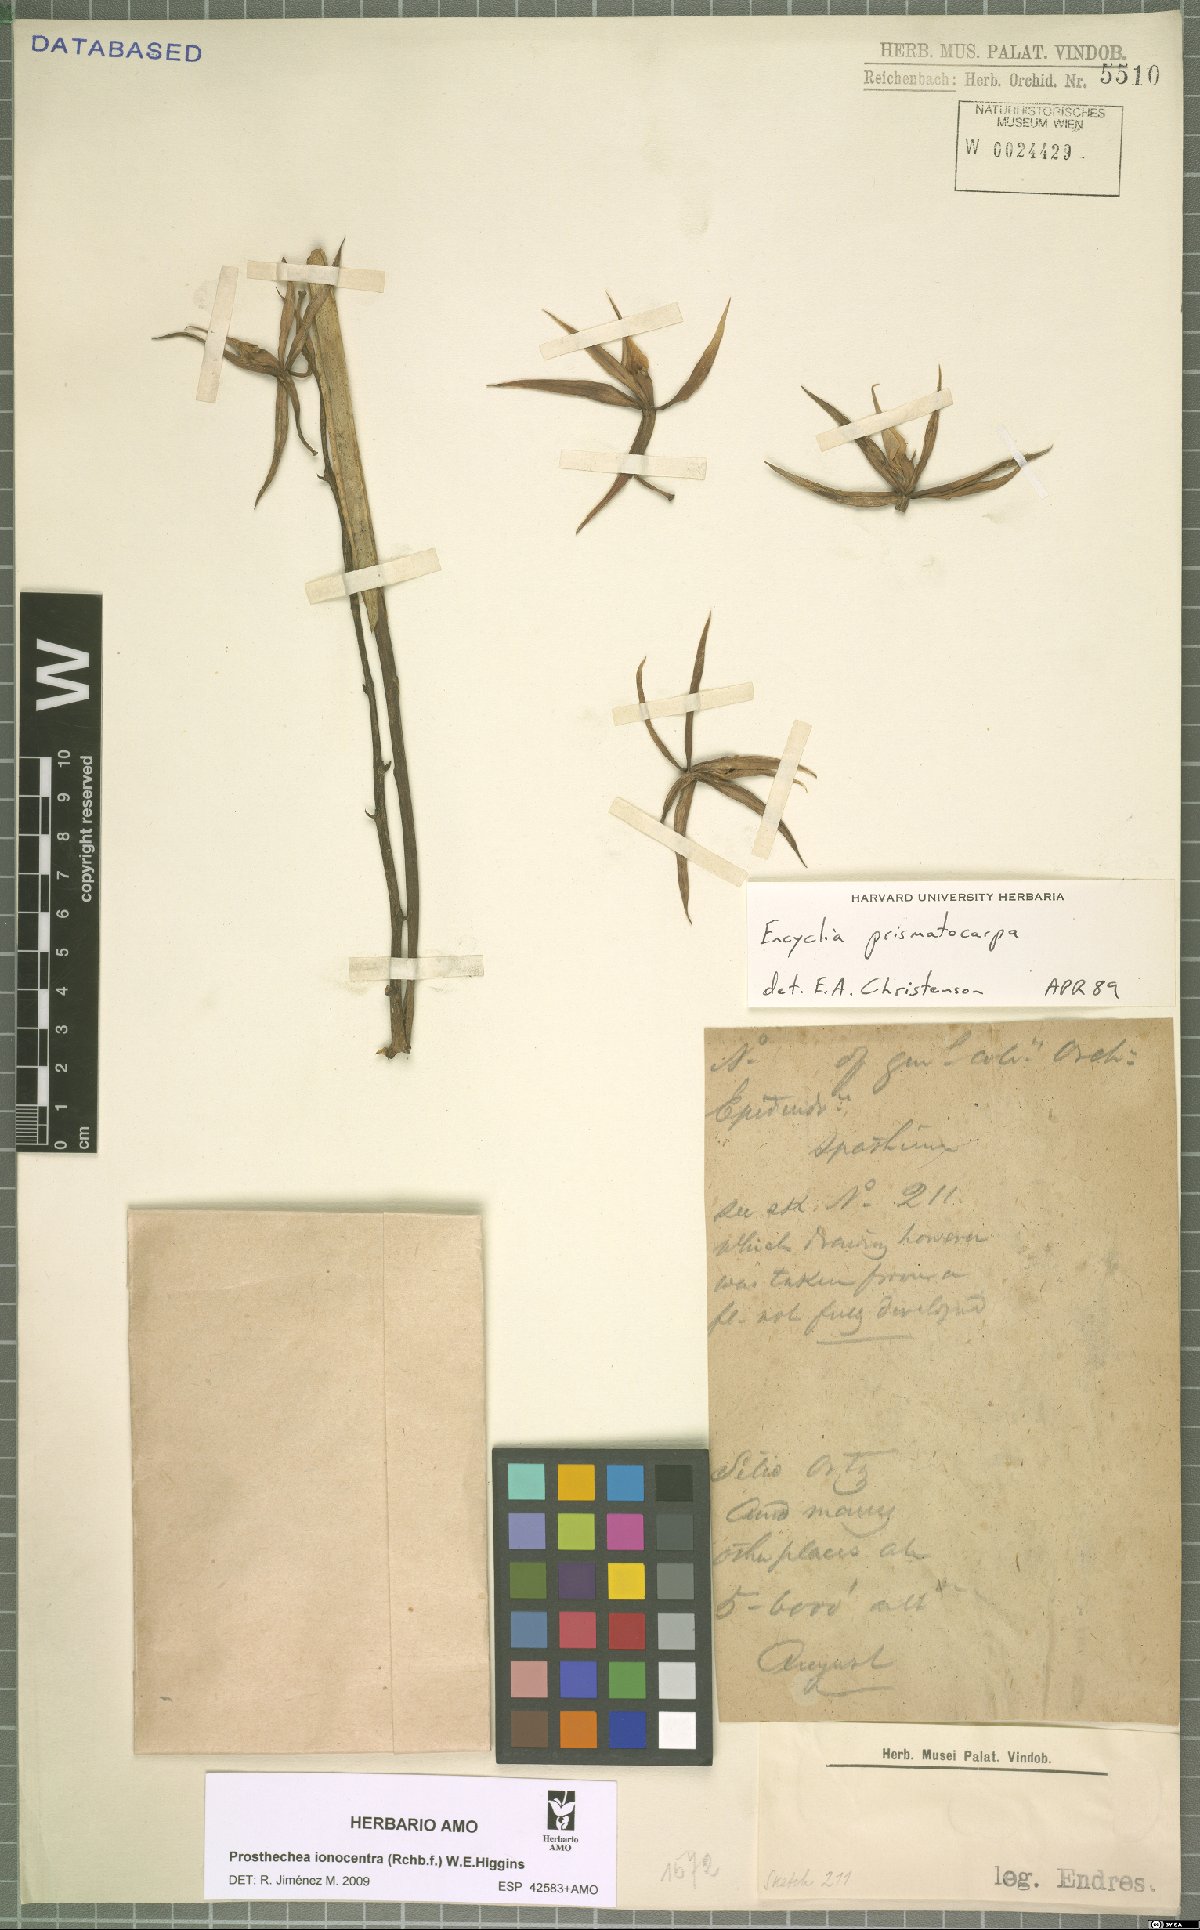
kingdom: Plantae
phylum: Tracheophyta
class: Liliopsida
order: Asparagales
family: Orchidaceae
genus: Prosthechea
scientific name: Prosthechea ionocentra
